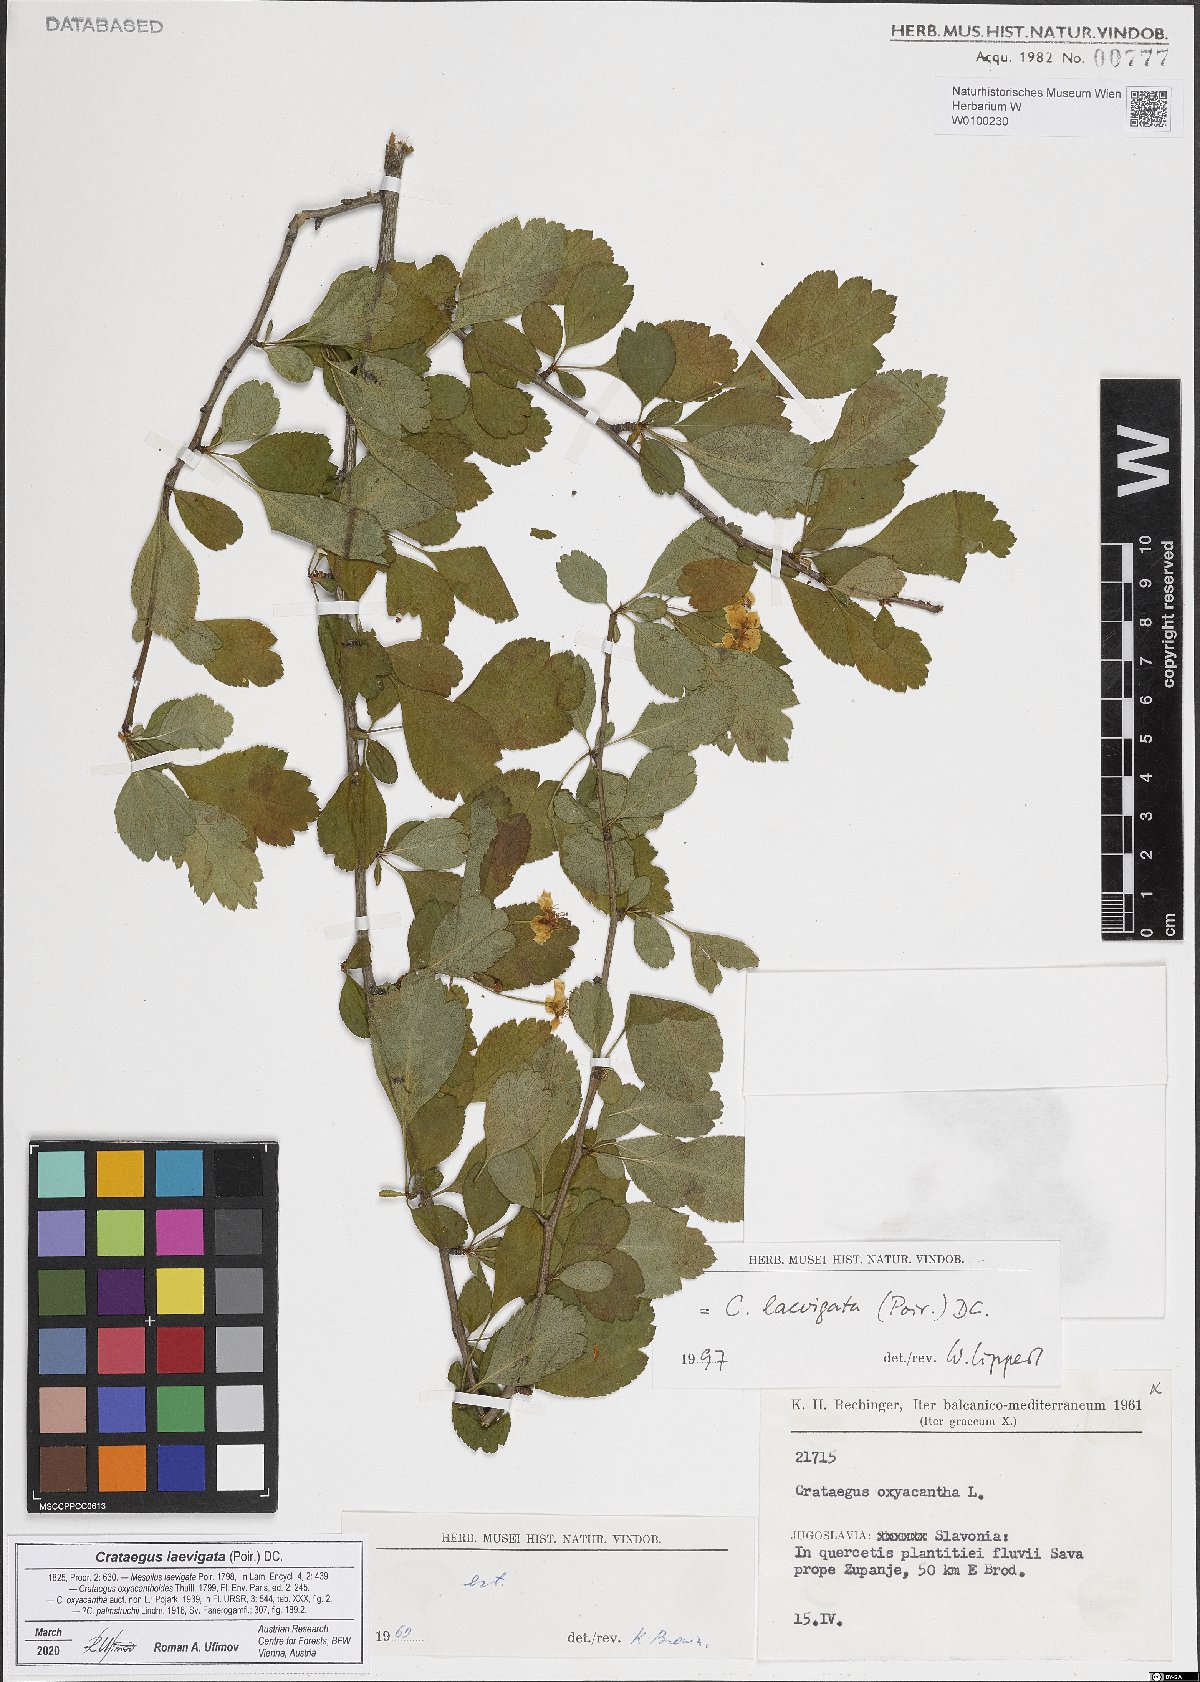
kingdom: Plantae
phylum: Tracheophyta
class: Magnoliopsida
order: Rosales
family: Rosaceae
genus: Crataegus
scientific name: Crataegus laevigata
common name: Midland hawthorn
